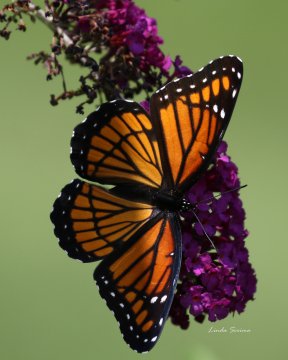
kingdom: Animalia
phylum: Arthropoda
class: Insecta
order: Lepidoptera
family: Nymphalidae
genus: Limenitis
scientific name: Limenitis archippus
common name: Viceroy
